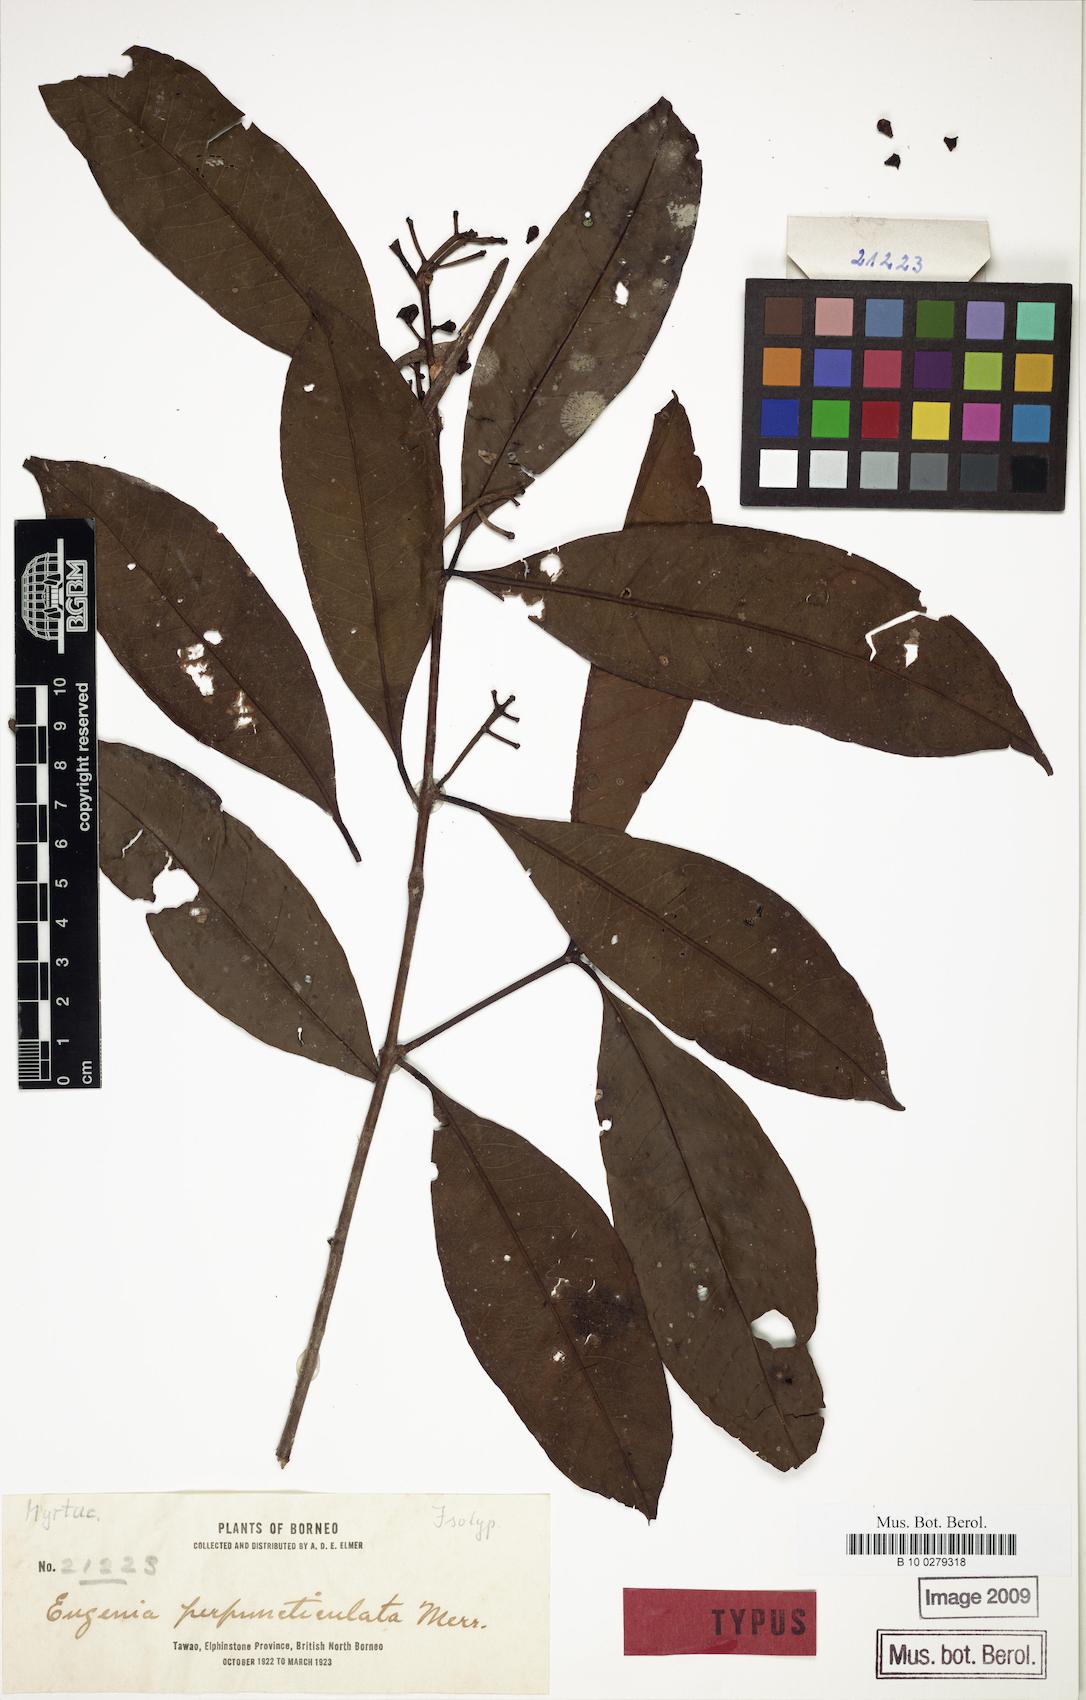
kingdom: Plantae
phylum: Tracheophyta
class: Magnoliopsida
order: Myrtales
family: Myrtaceae
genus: Syzygium
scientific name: Syzygium pustulatum
